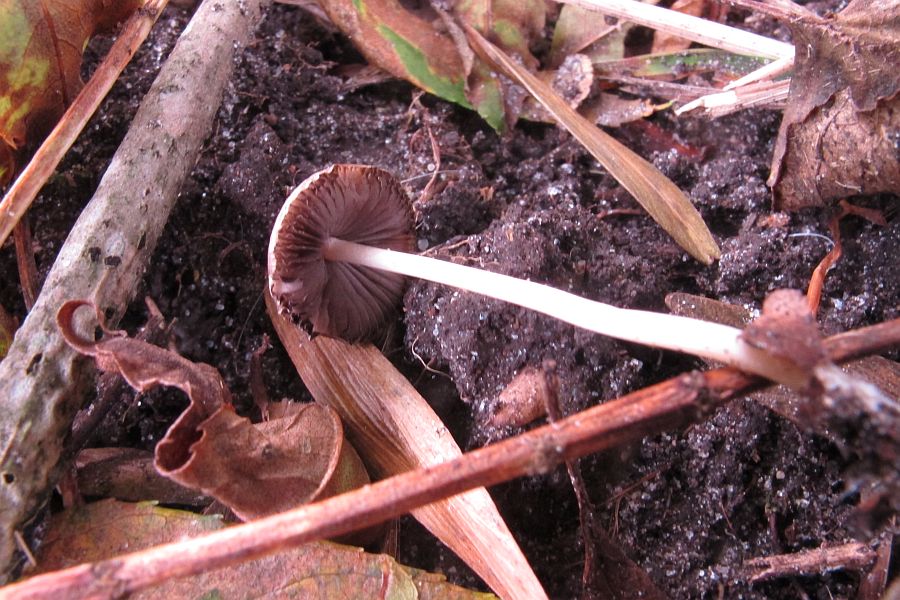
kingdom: Fungi
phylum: Basidiomycota
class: Agaricomycetes
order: Agaricales
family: Psathyrellaceae
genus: Britzelmayria
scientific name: Britzelmayria supernula
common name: stinkende mørkhat
